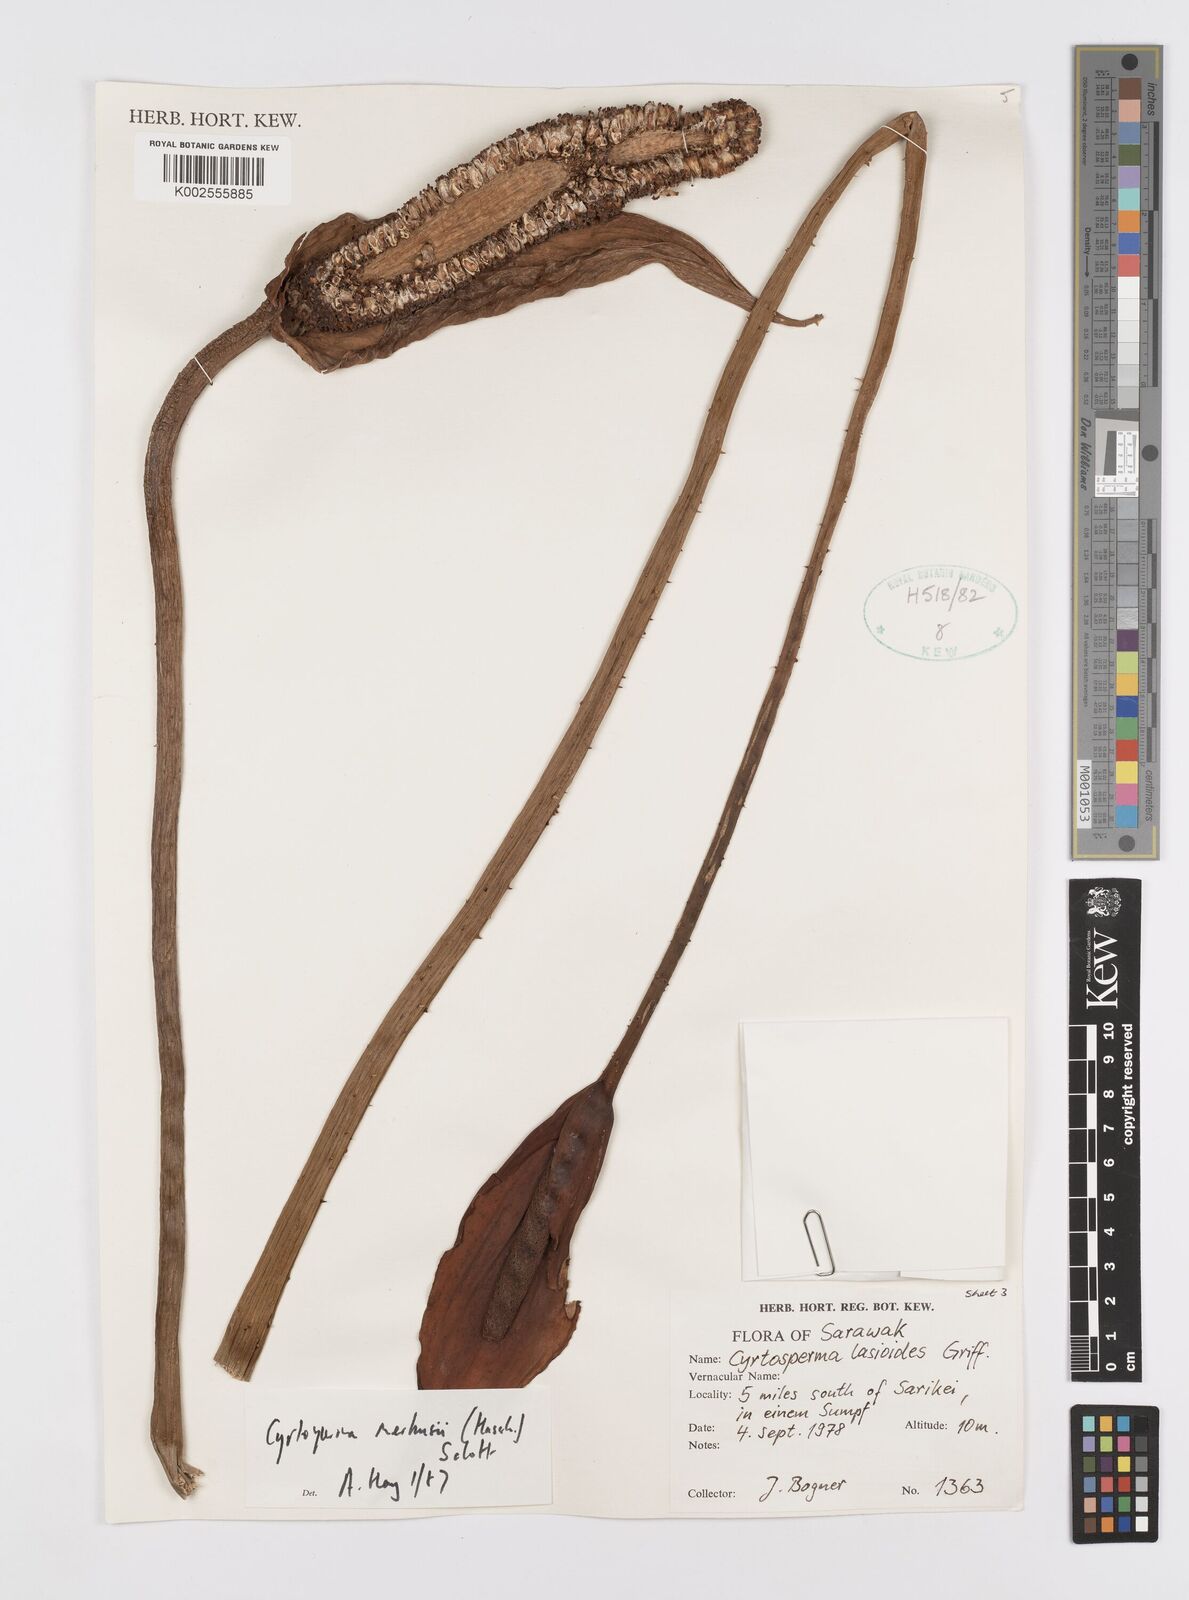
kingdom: Plantae
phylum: Tracheophyta
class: Liliopsida
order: Alismatales
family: Araceae
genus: Cyrtosperma
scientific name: Cyrtosperma merkusii
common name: Giant swamp-taro
